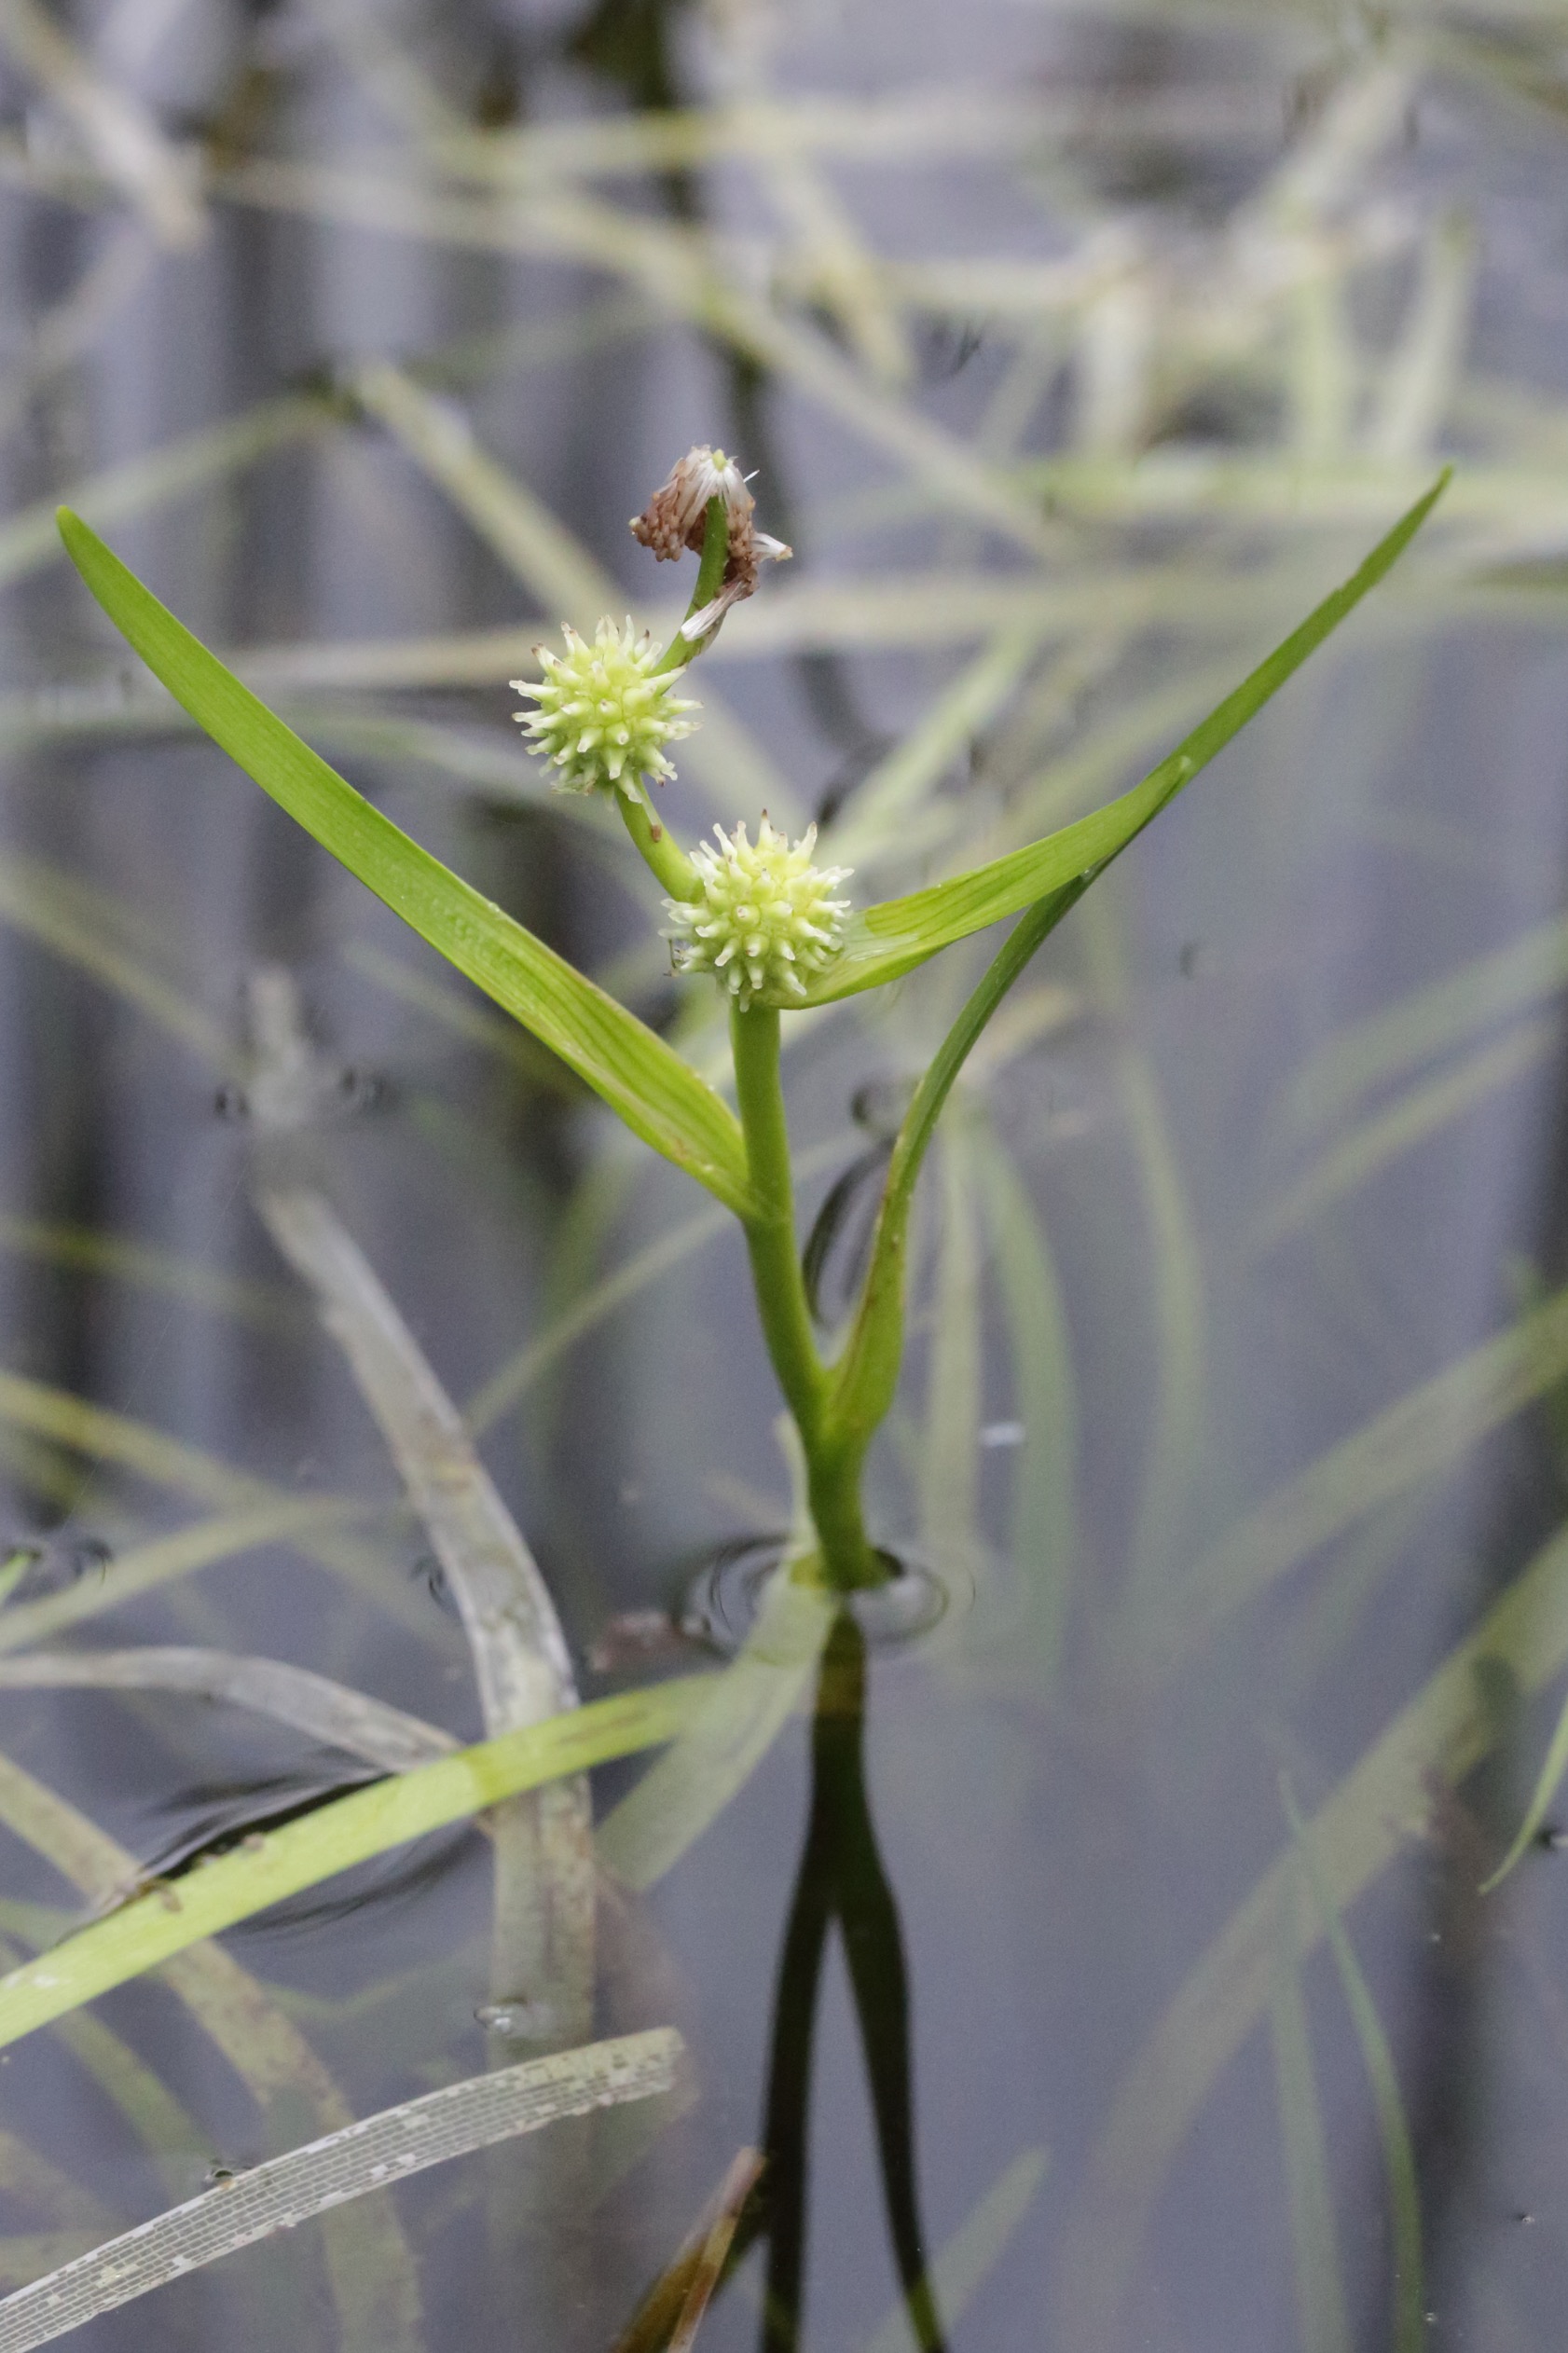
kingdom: Plantae
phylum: Tracheophyta
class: Liliopsida
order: Poales
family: Typhaceae
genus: Sparganium
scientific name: Sparganium natans
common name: Spæd pindsvineknop
